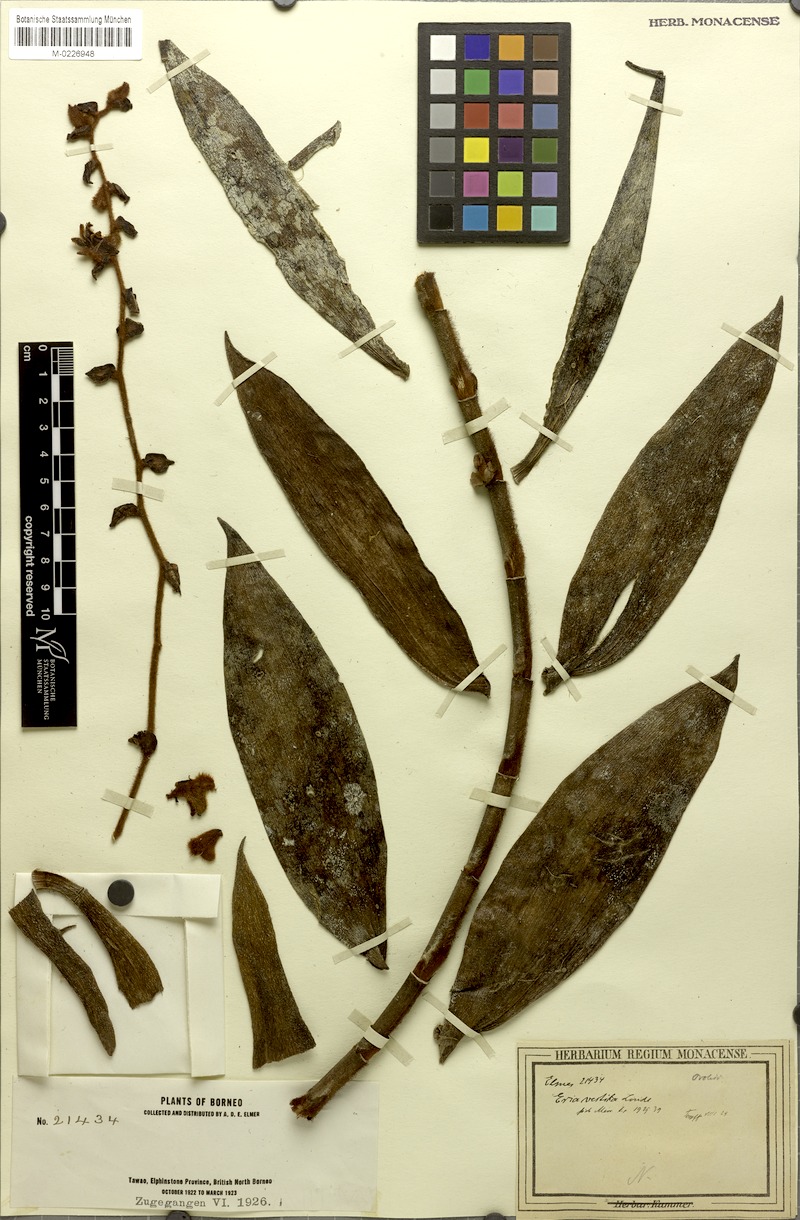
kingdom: Plantae
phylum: Tracheophyta
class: Liliopsida
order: Asparagales
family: Orchidaceae
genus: Trichotosia
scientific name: Trichotosia vestita
